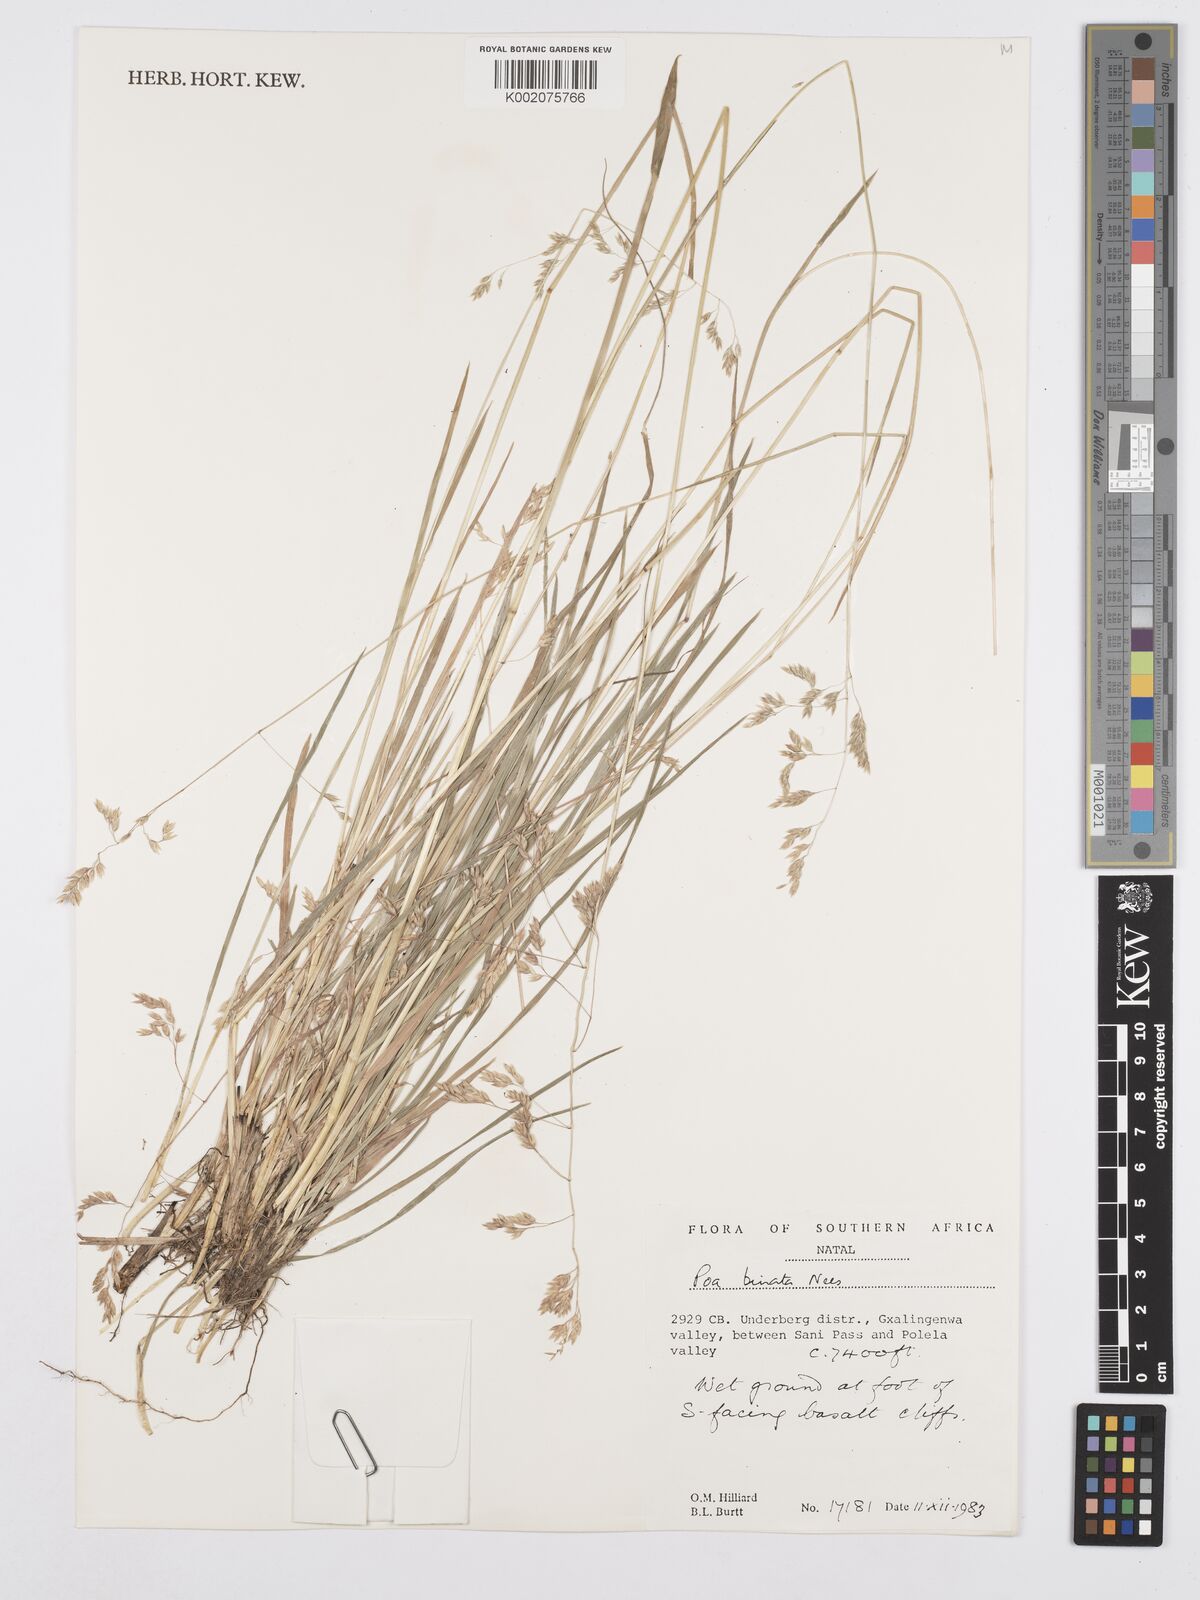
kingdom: Plantae
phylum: Tracheophyta
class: Liliopsida
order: Poales
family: Poaceae
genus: Poa
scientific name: Poa binata
